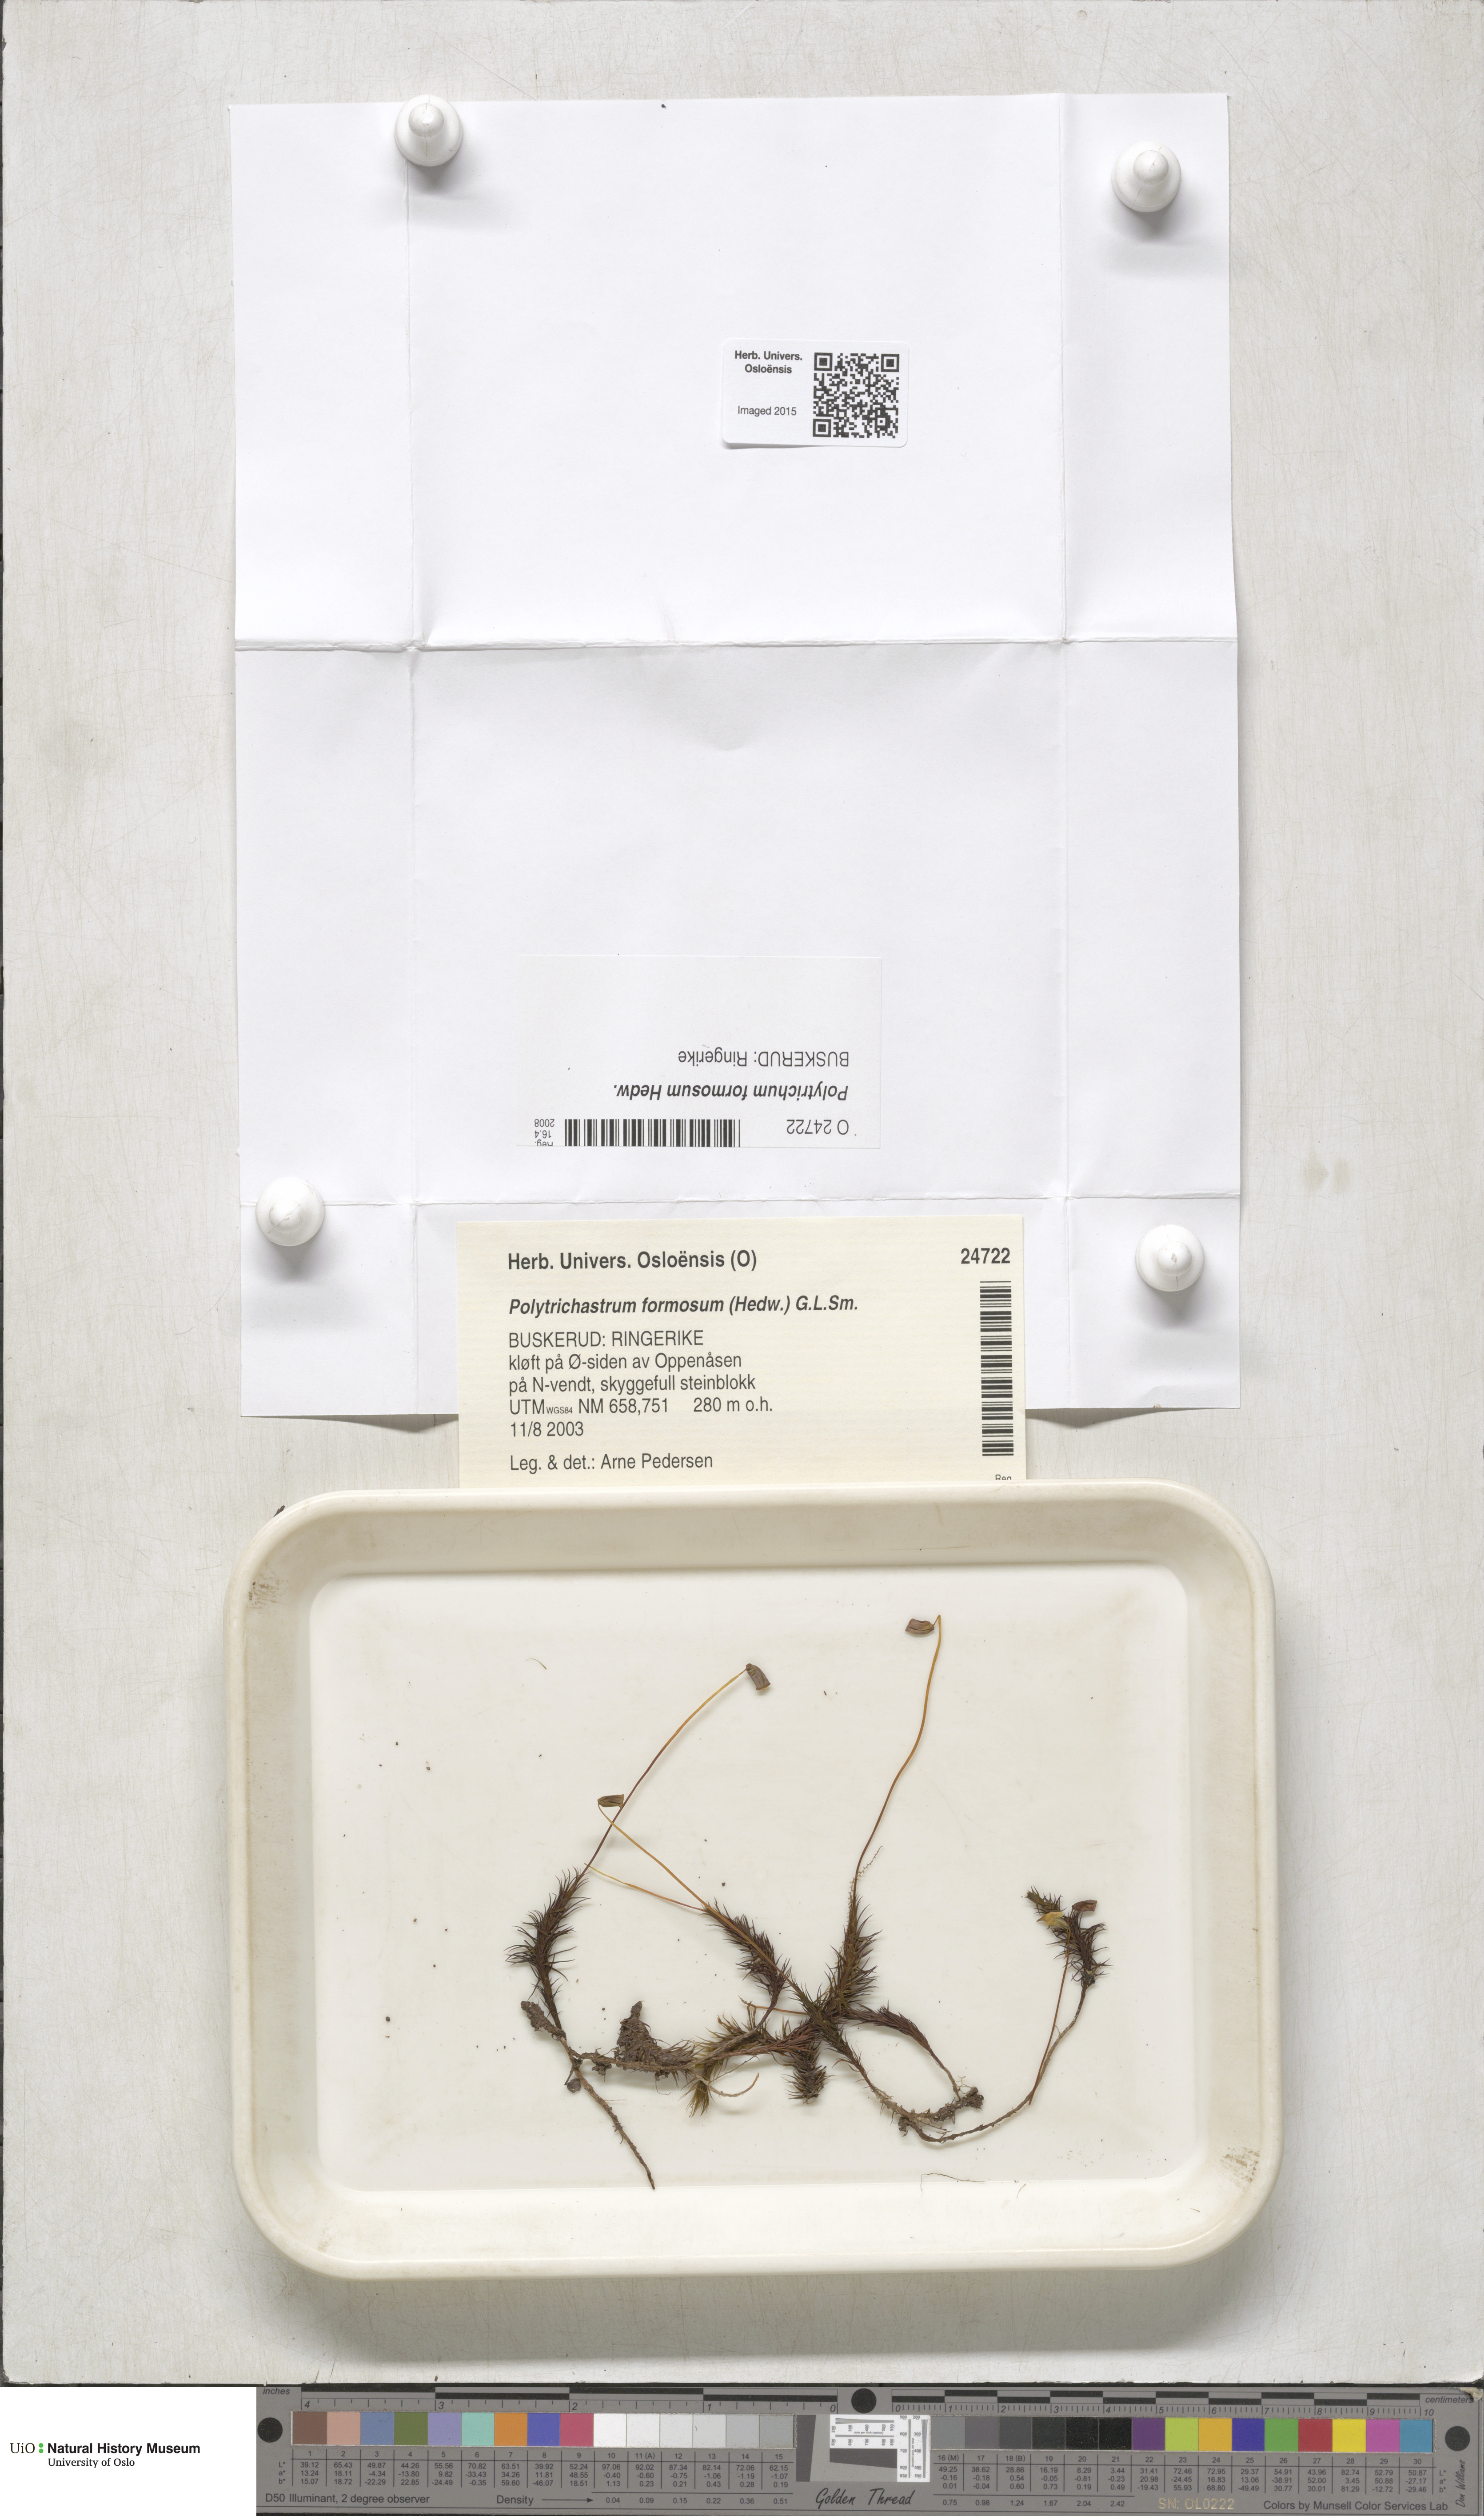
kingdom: Plantae
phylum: Bryophyta
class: Polytrichopsida
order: Polytrichales
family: Polytrichaceae
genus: Polytrichum
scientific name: Polytrichum formosum
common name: Bank haircap moss
